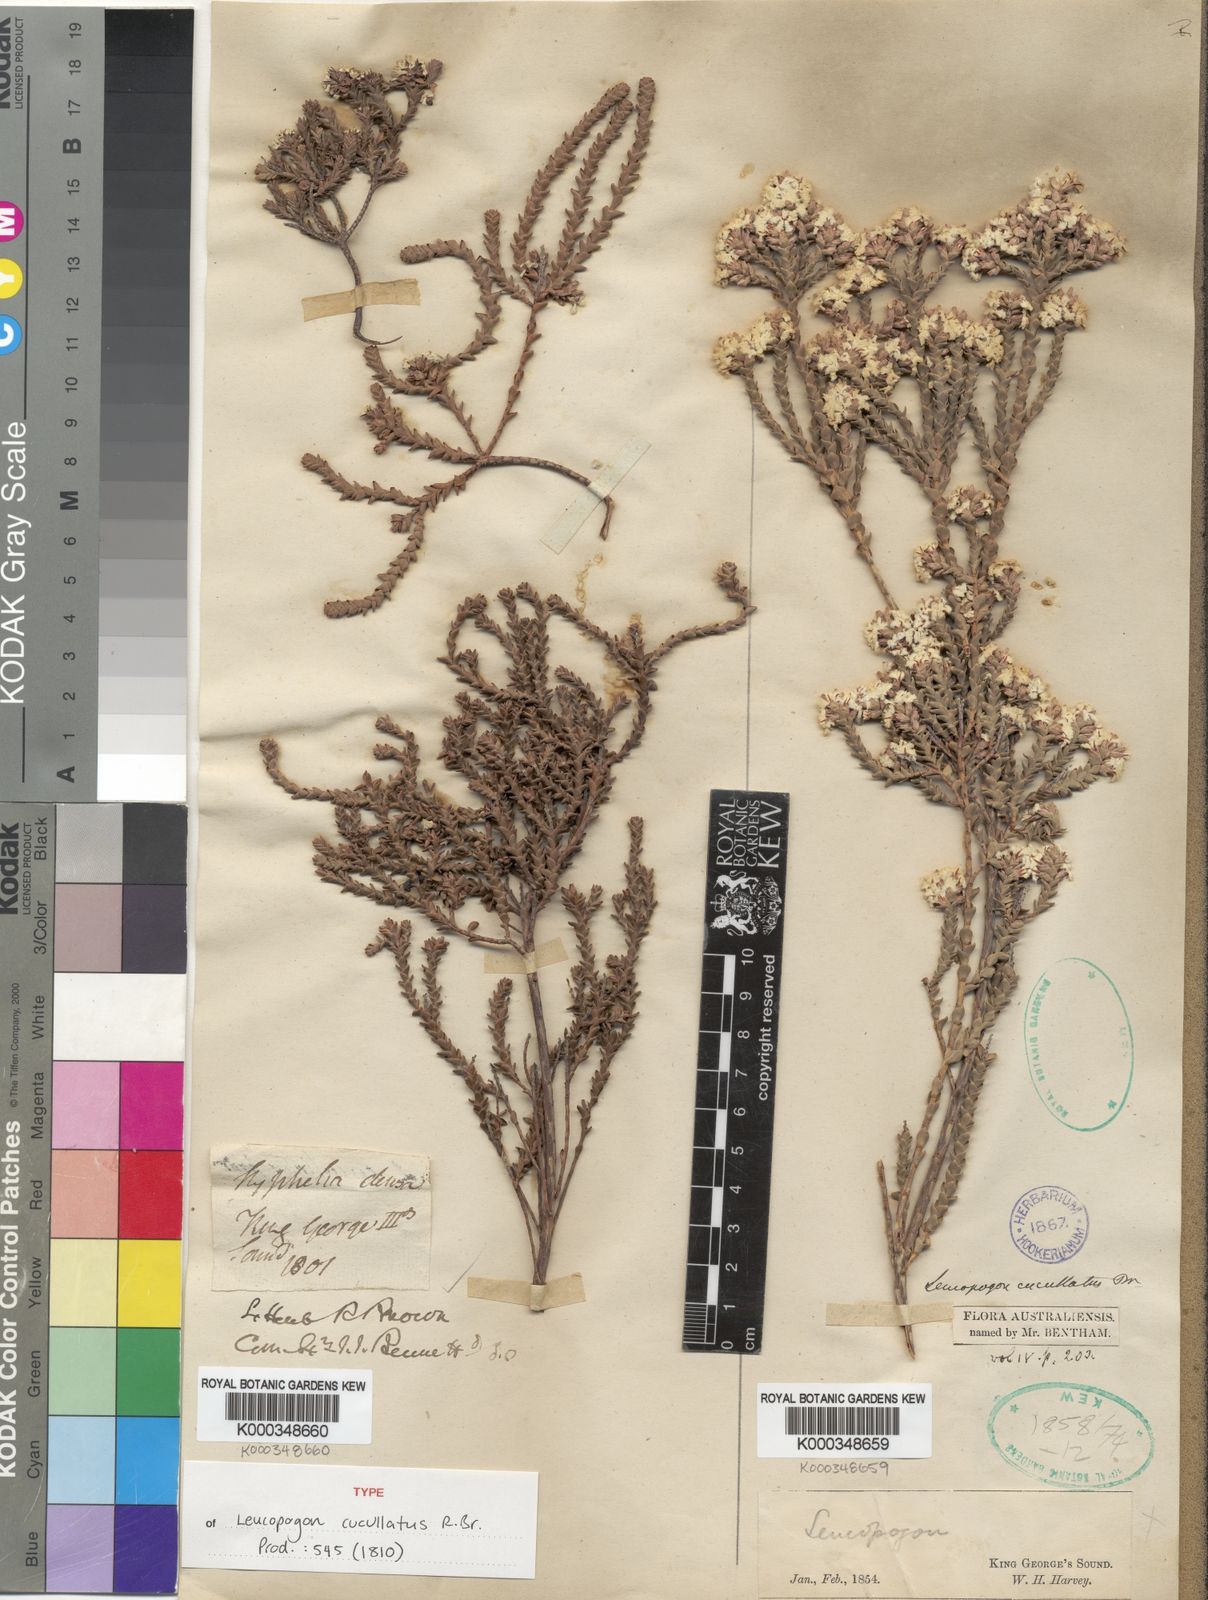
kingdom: Plantae
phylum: Tracheophyta
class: Magnoliopsida
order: Ericales
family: Ericaceae
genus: Leucopogon
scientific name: Leucopogon cucullatus
